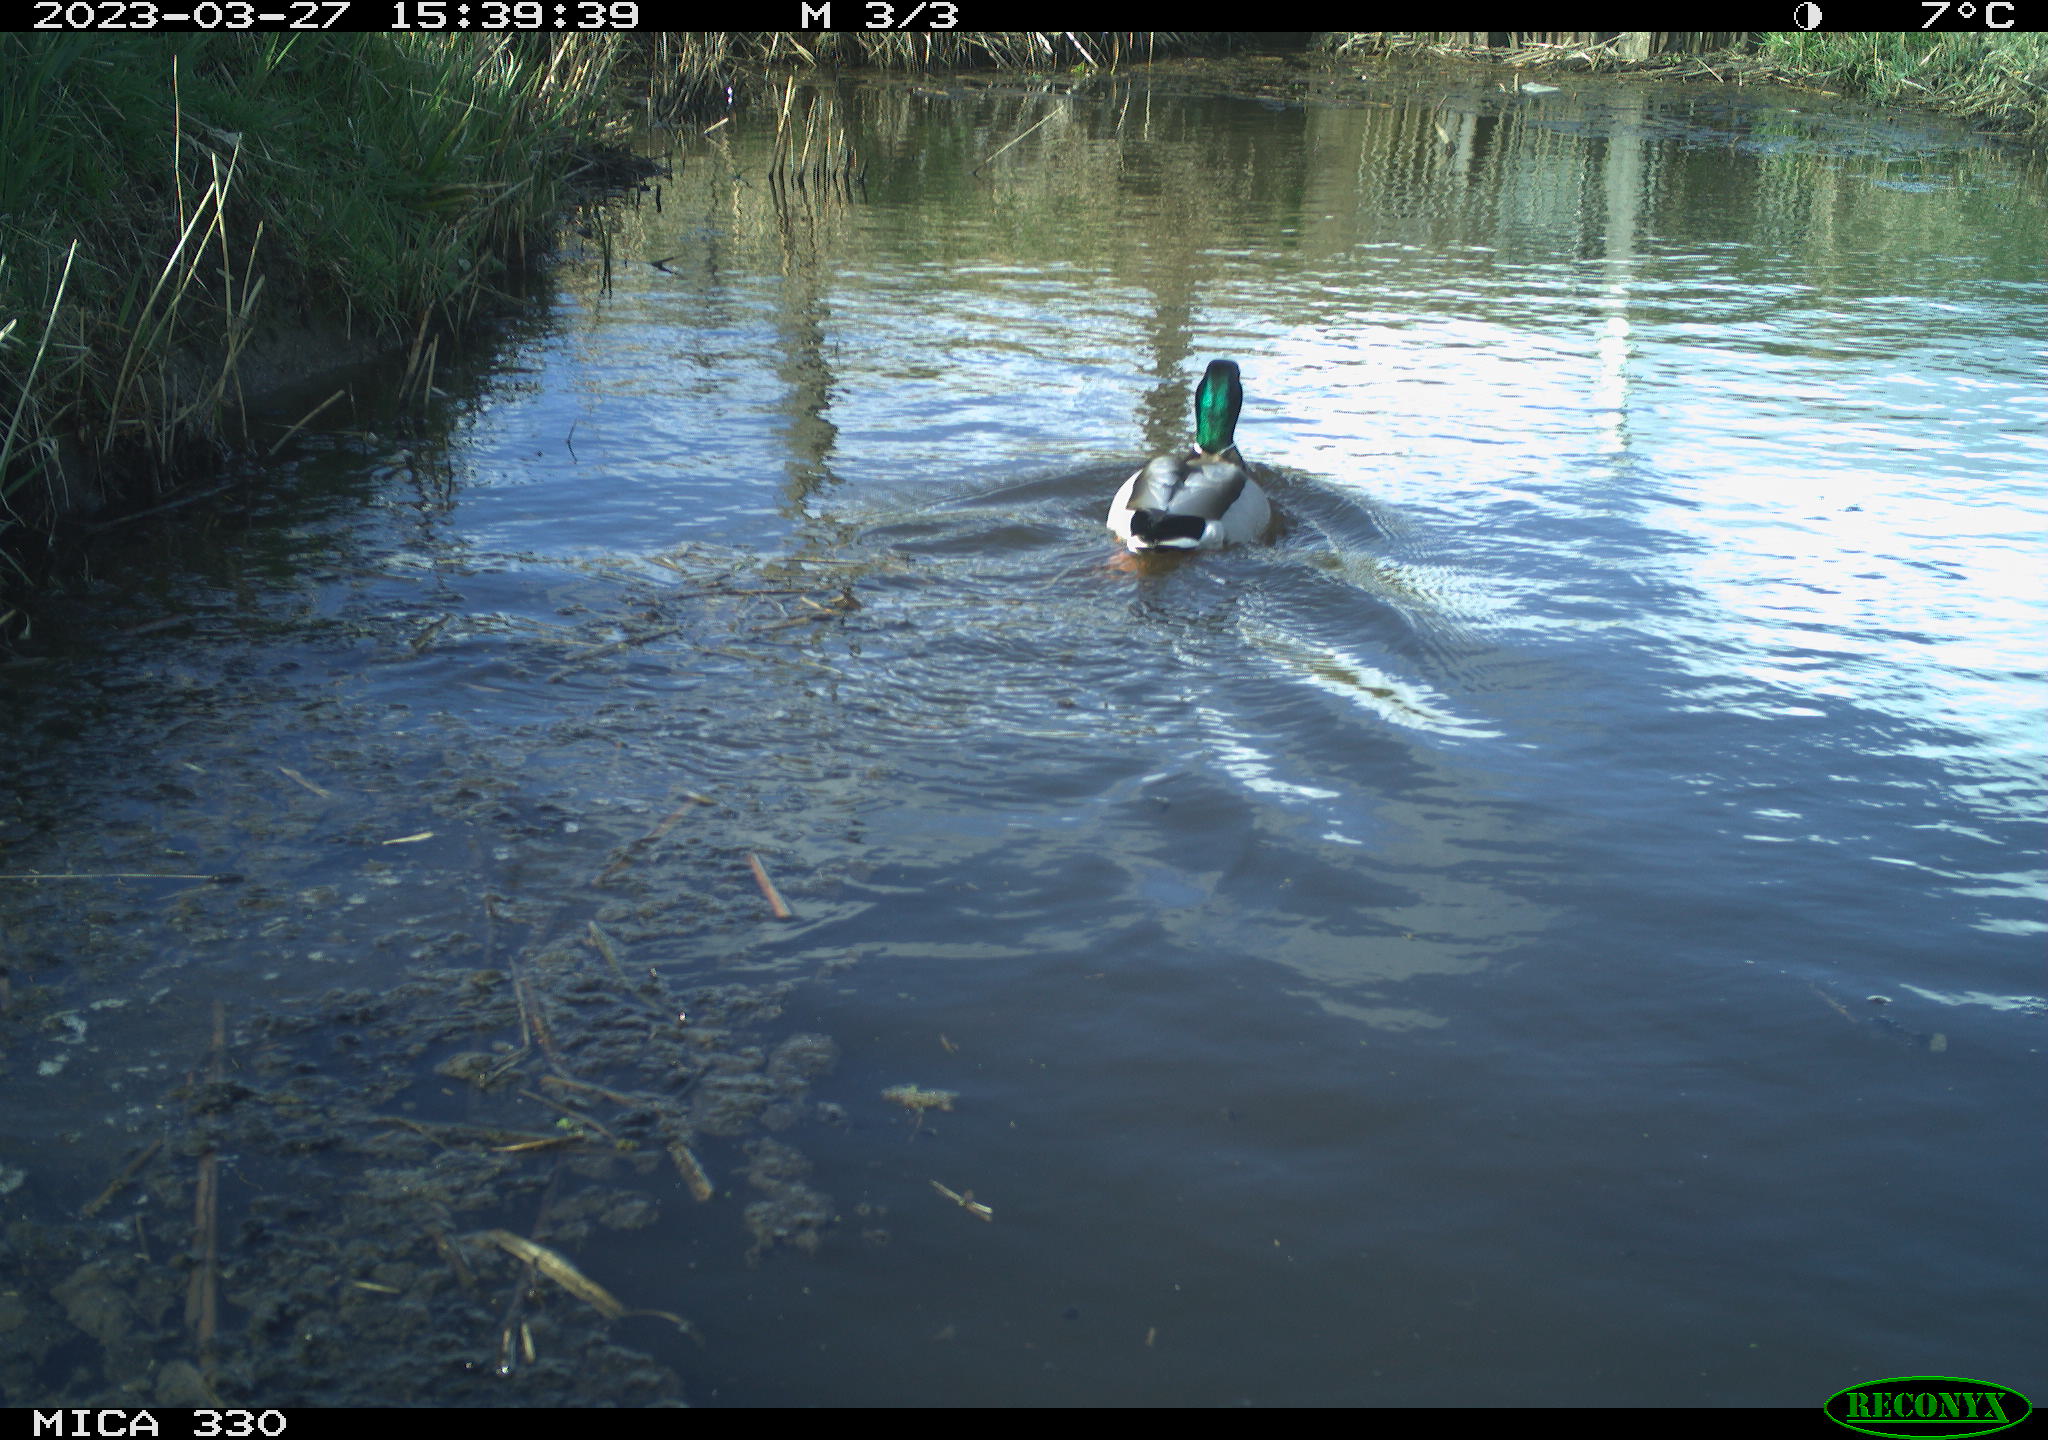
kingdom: Animalia
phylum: Chordata
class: Aves
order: Anseriformes
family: Anatidae
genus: Anas
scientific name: Anas
